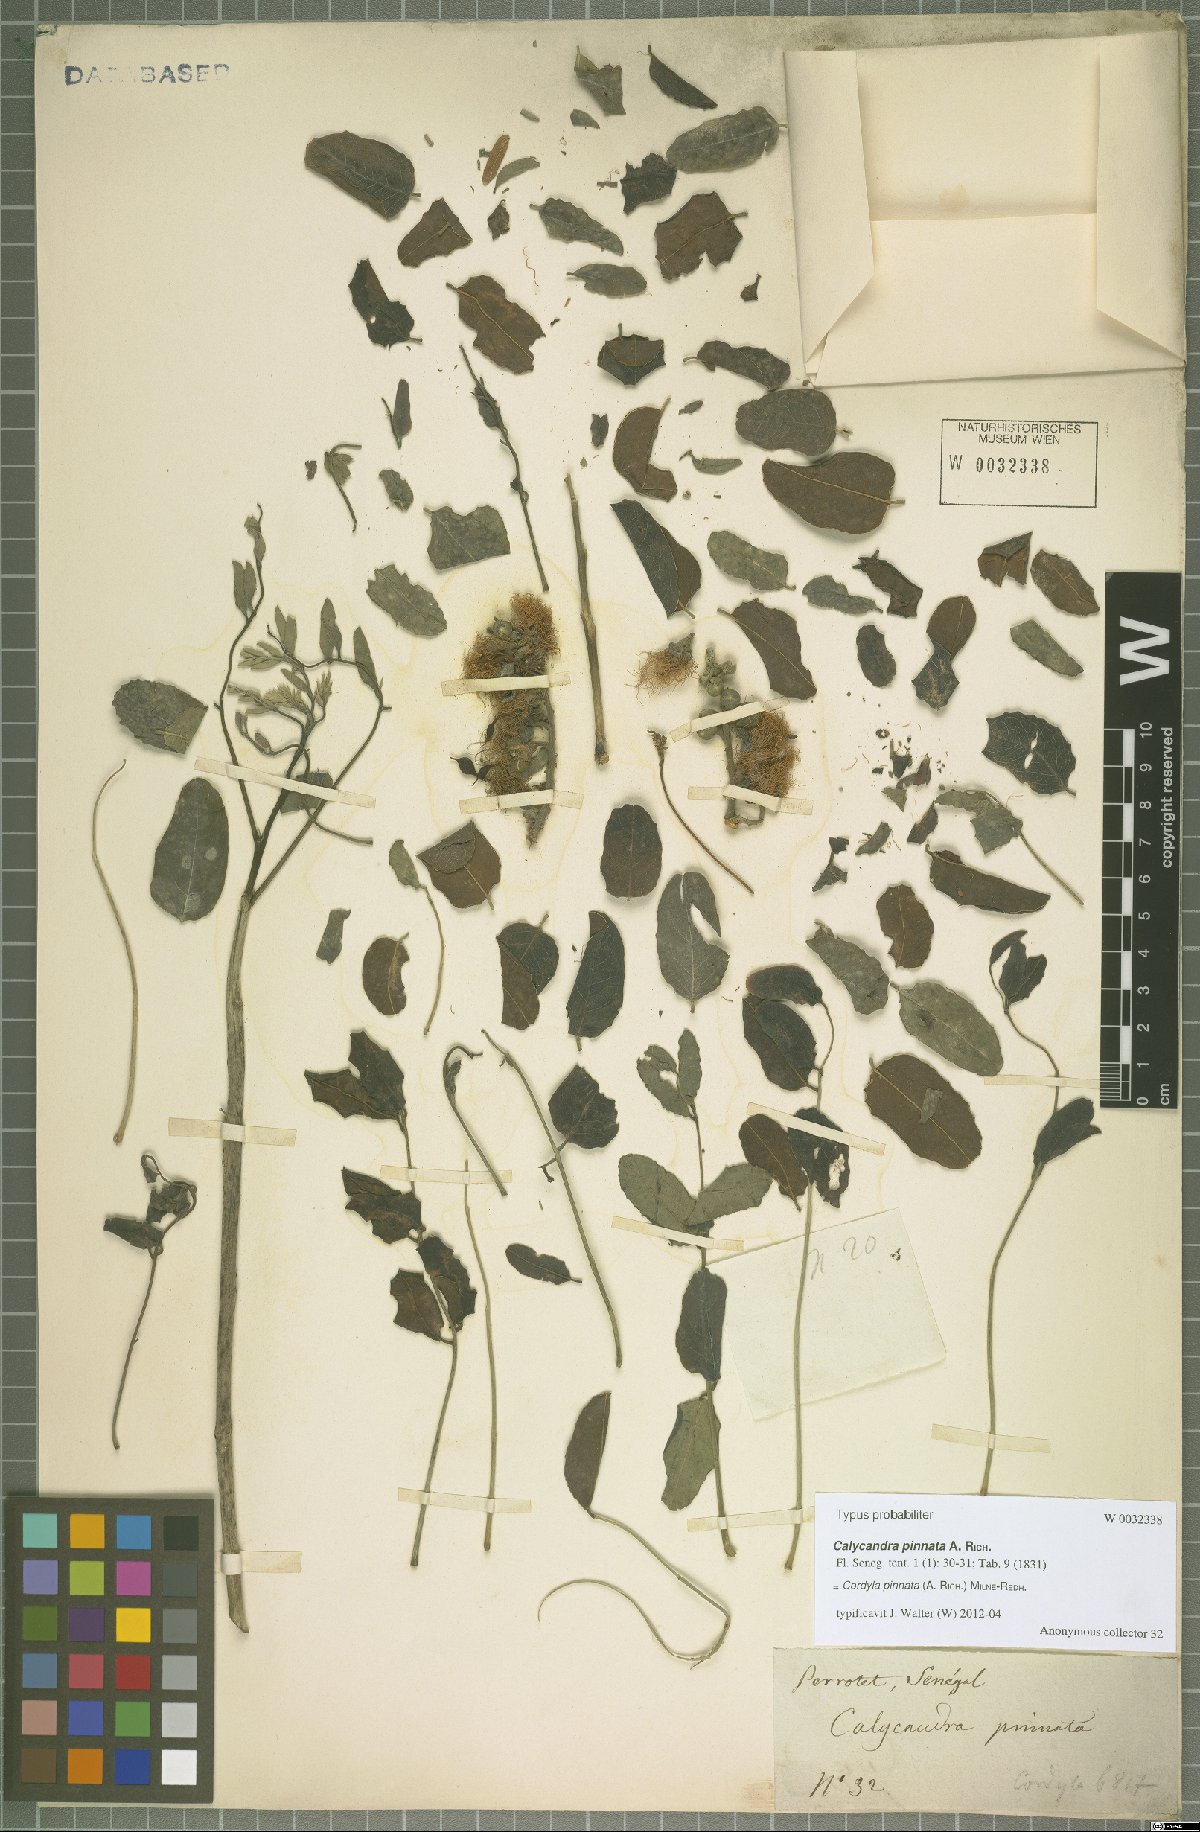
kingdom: Plantae
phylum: Tracheophyta
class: Magnoliopsida
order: Fabales
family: Fabaceae
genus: Cordyla
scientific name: Cordyla pinnata
